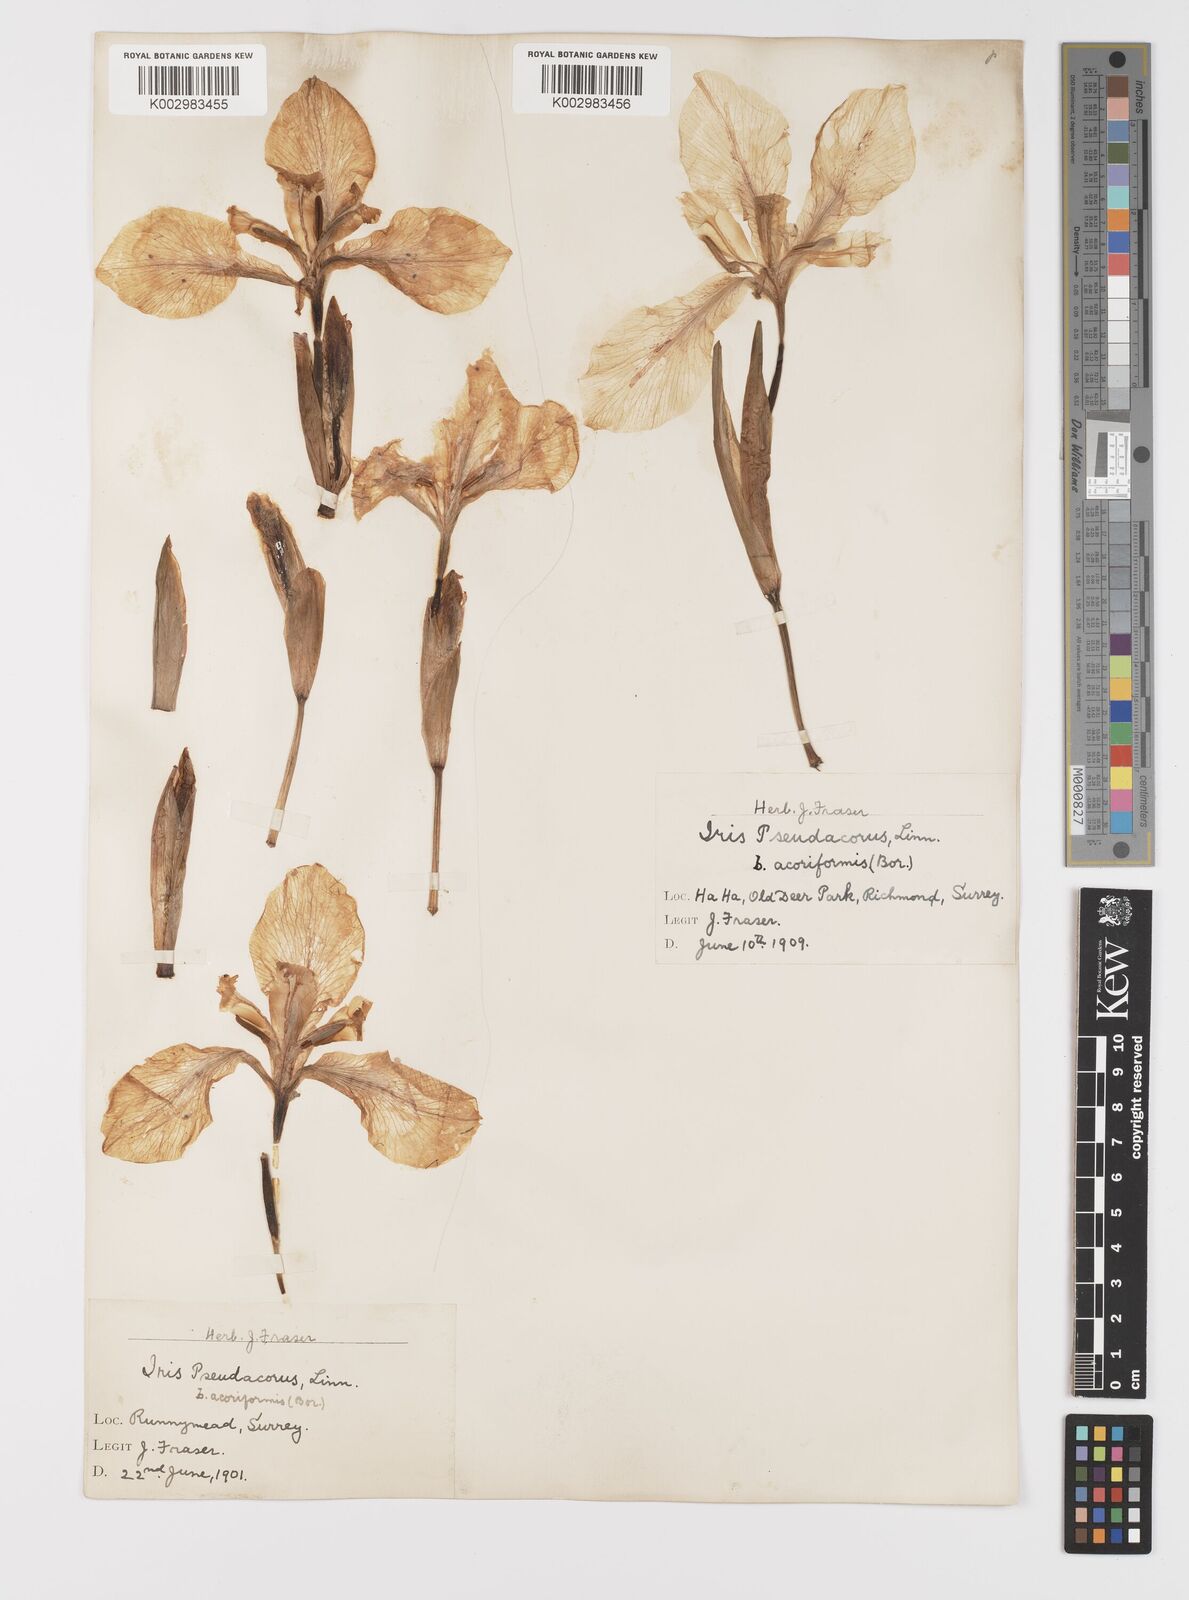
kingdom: Plantae
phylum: Tracheophyta
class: Liliopsida
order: Asparagales
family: Iridaceae
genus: Iris
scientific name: Iris pseudacorus
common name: Yellow flag
